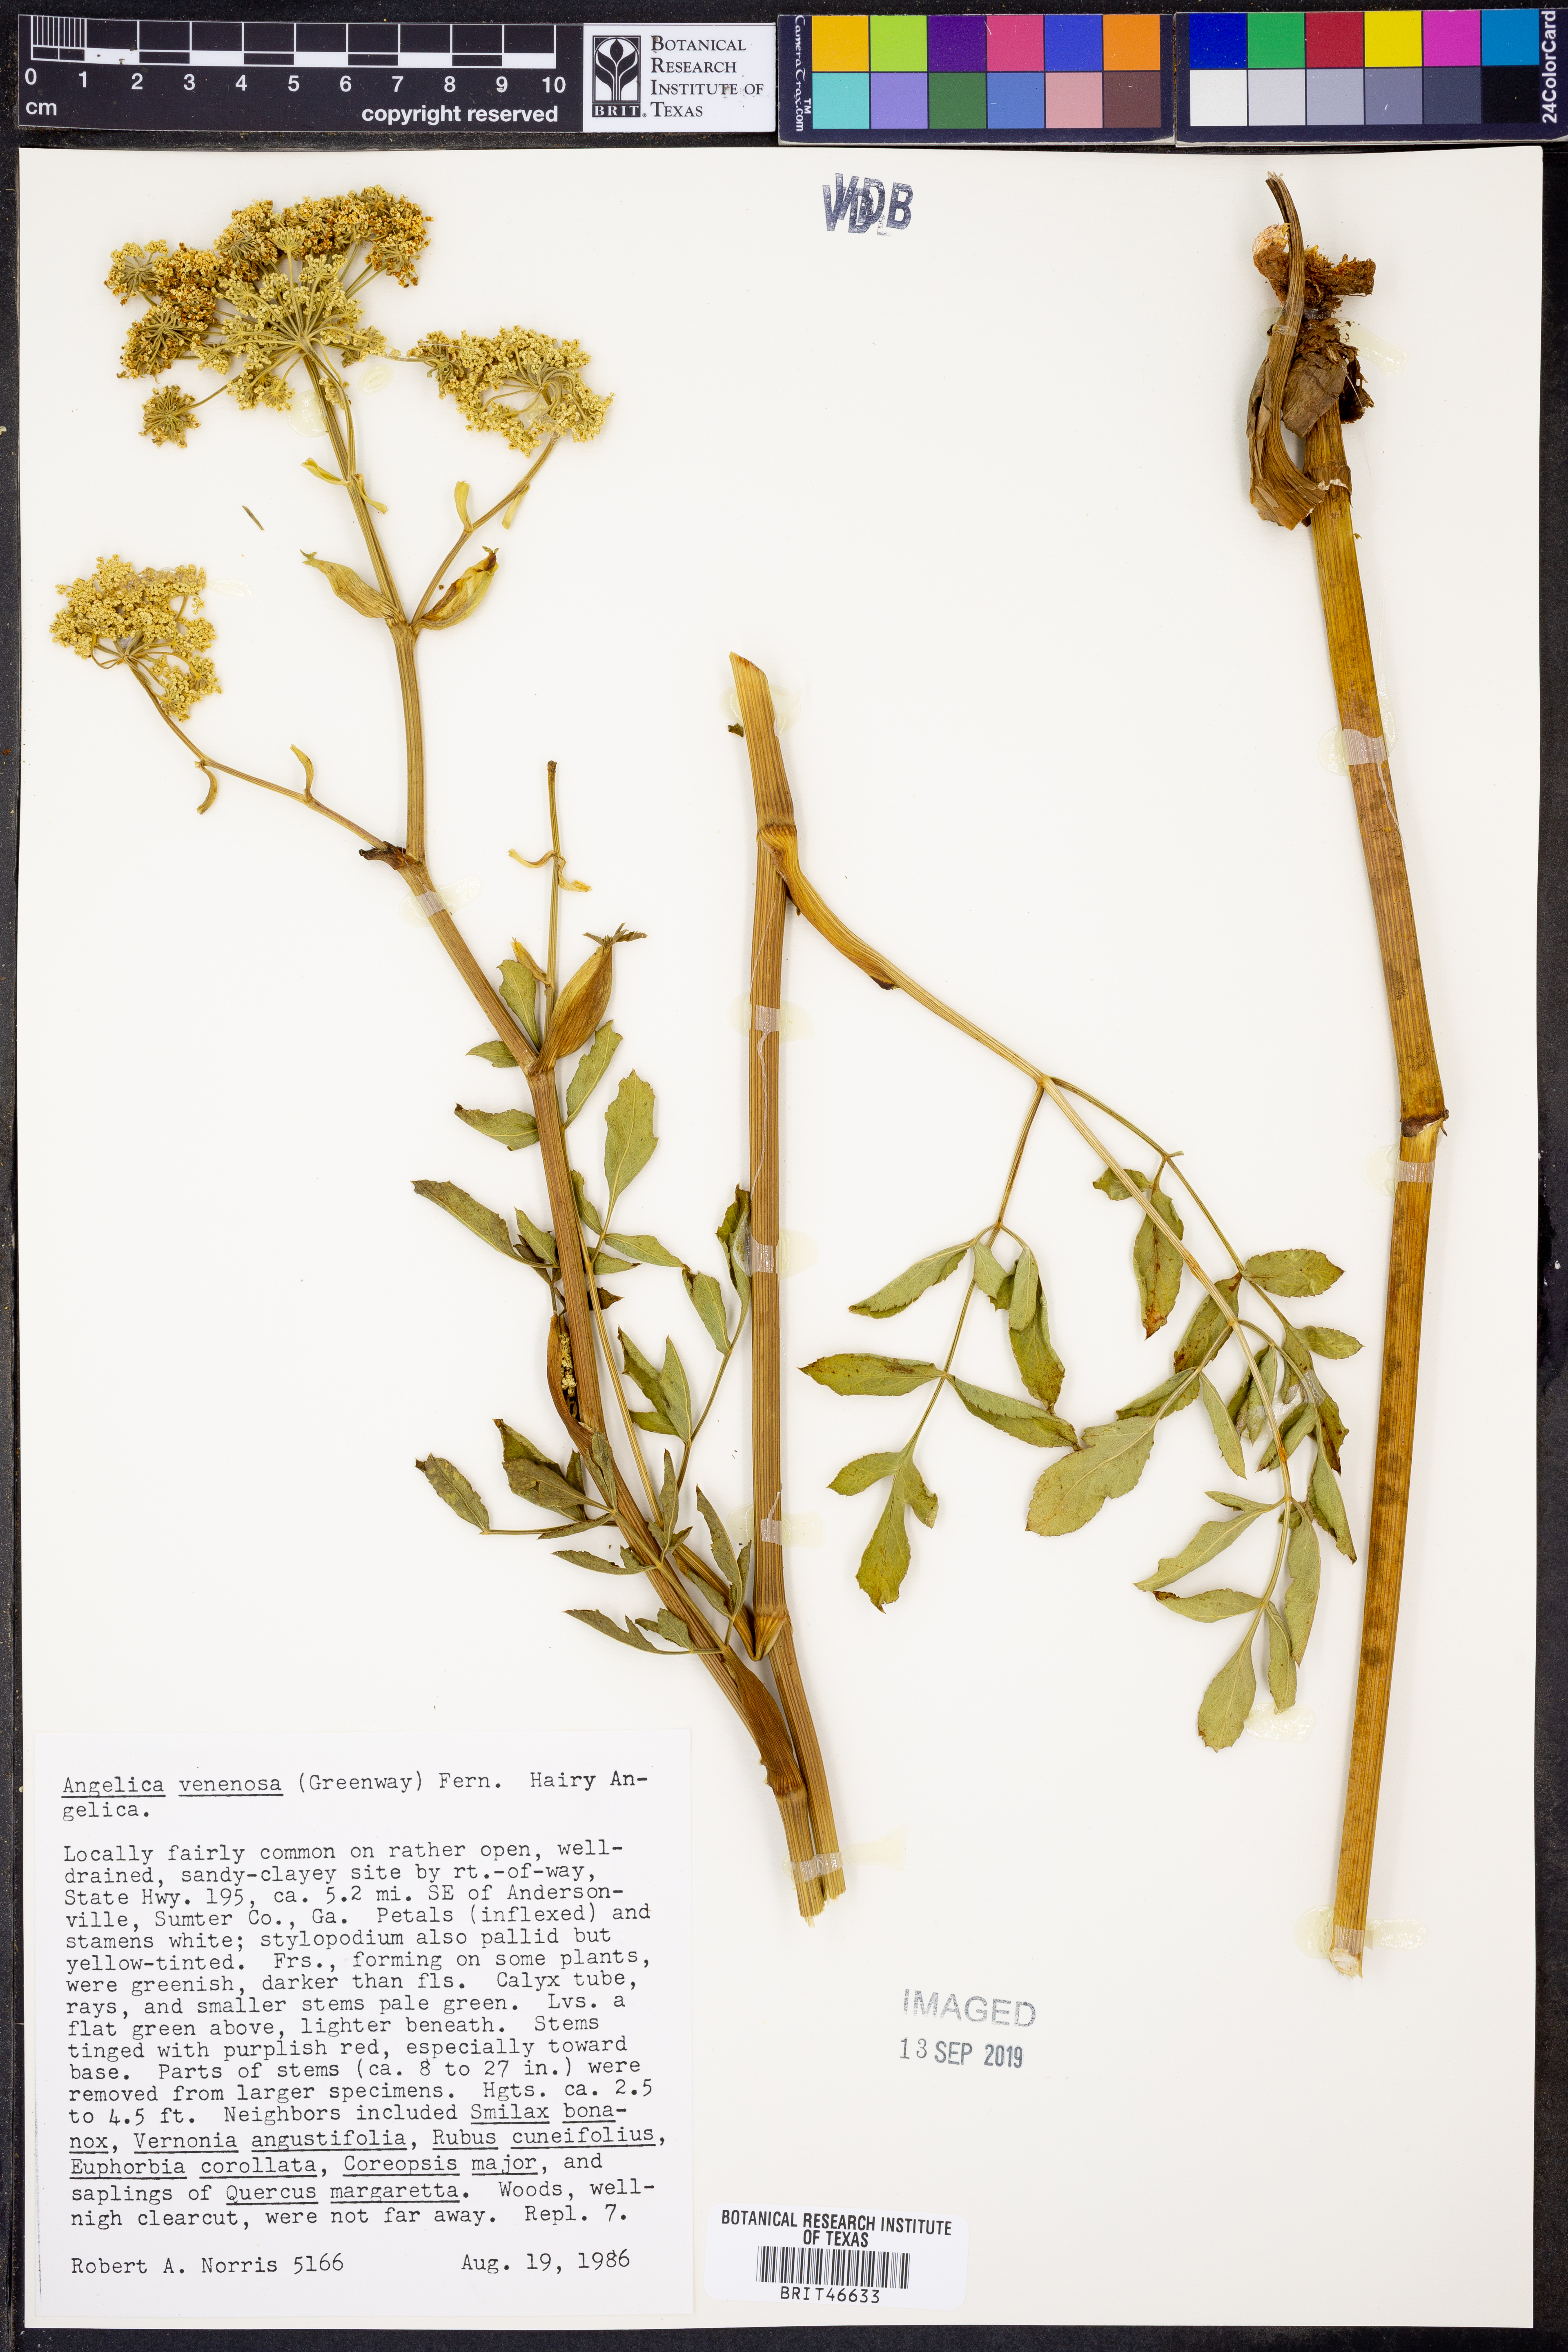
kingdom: Plantae
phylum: Tracheophyta
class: Magnoliopsida
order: Apiales
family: Apiaceae
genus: Angelica
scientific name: Angelica venenosa
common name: Hairy angelica
